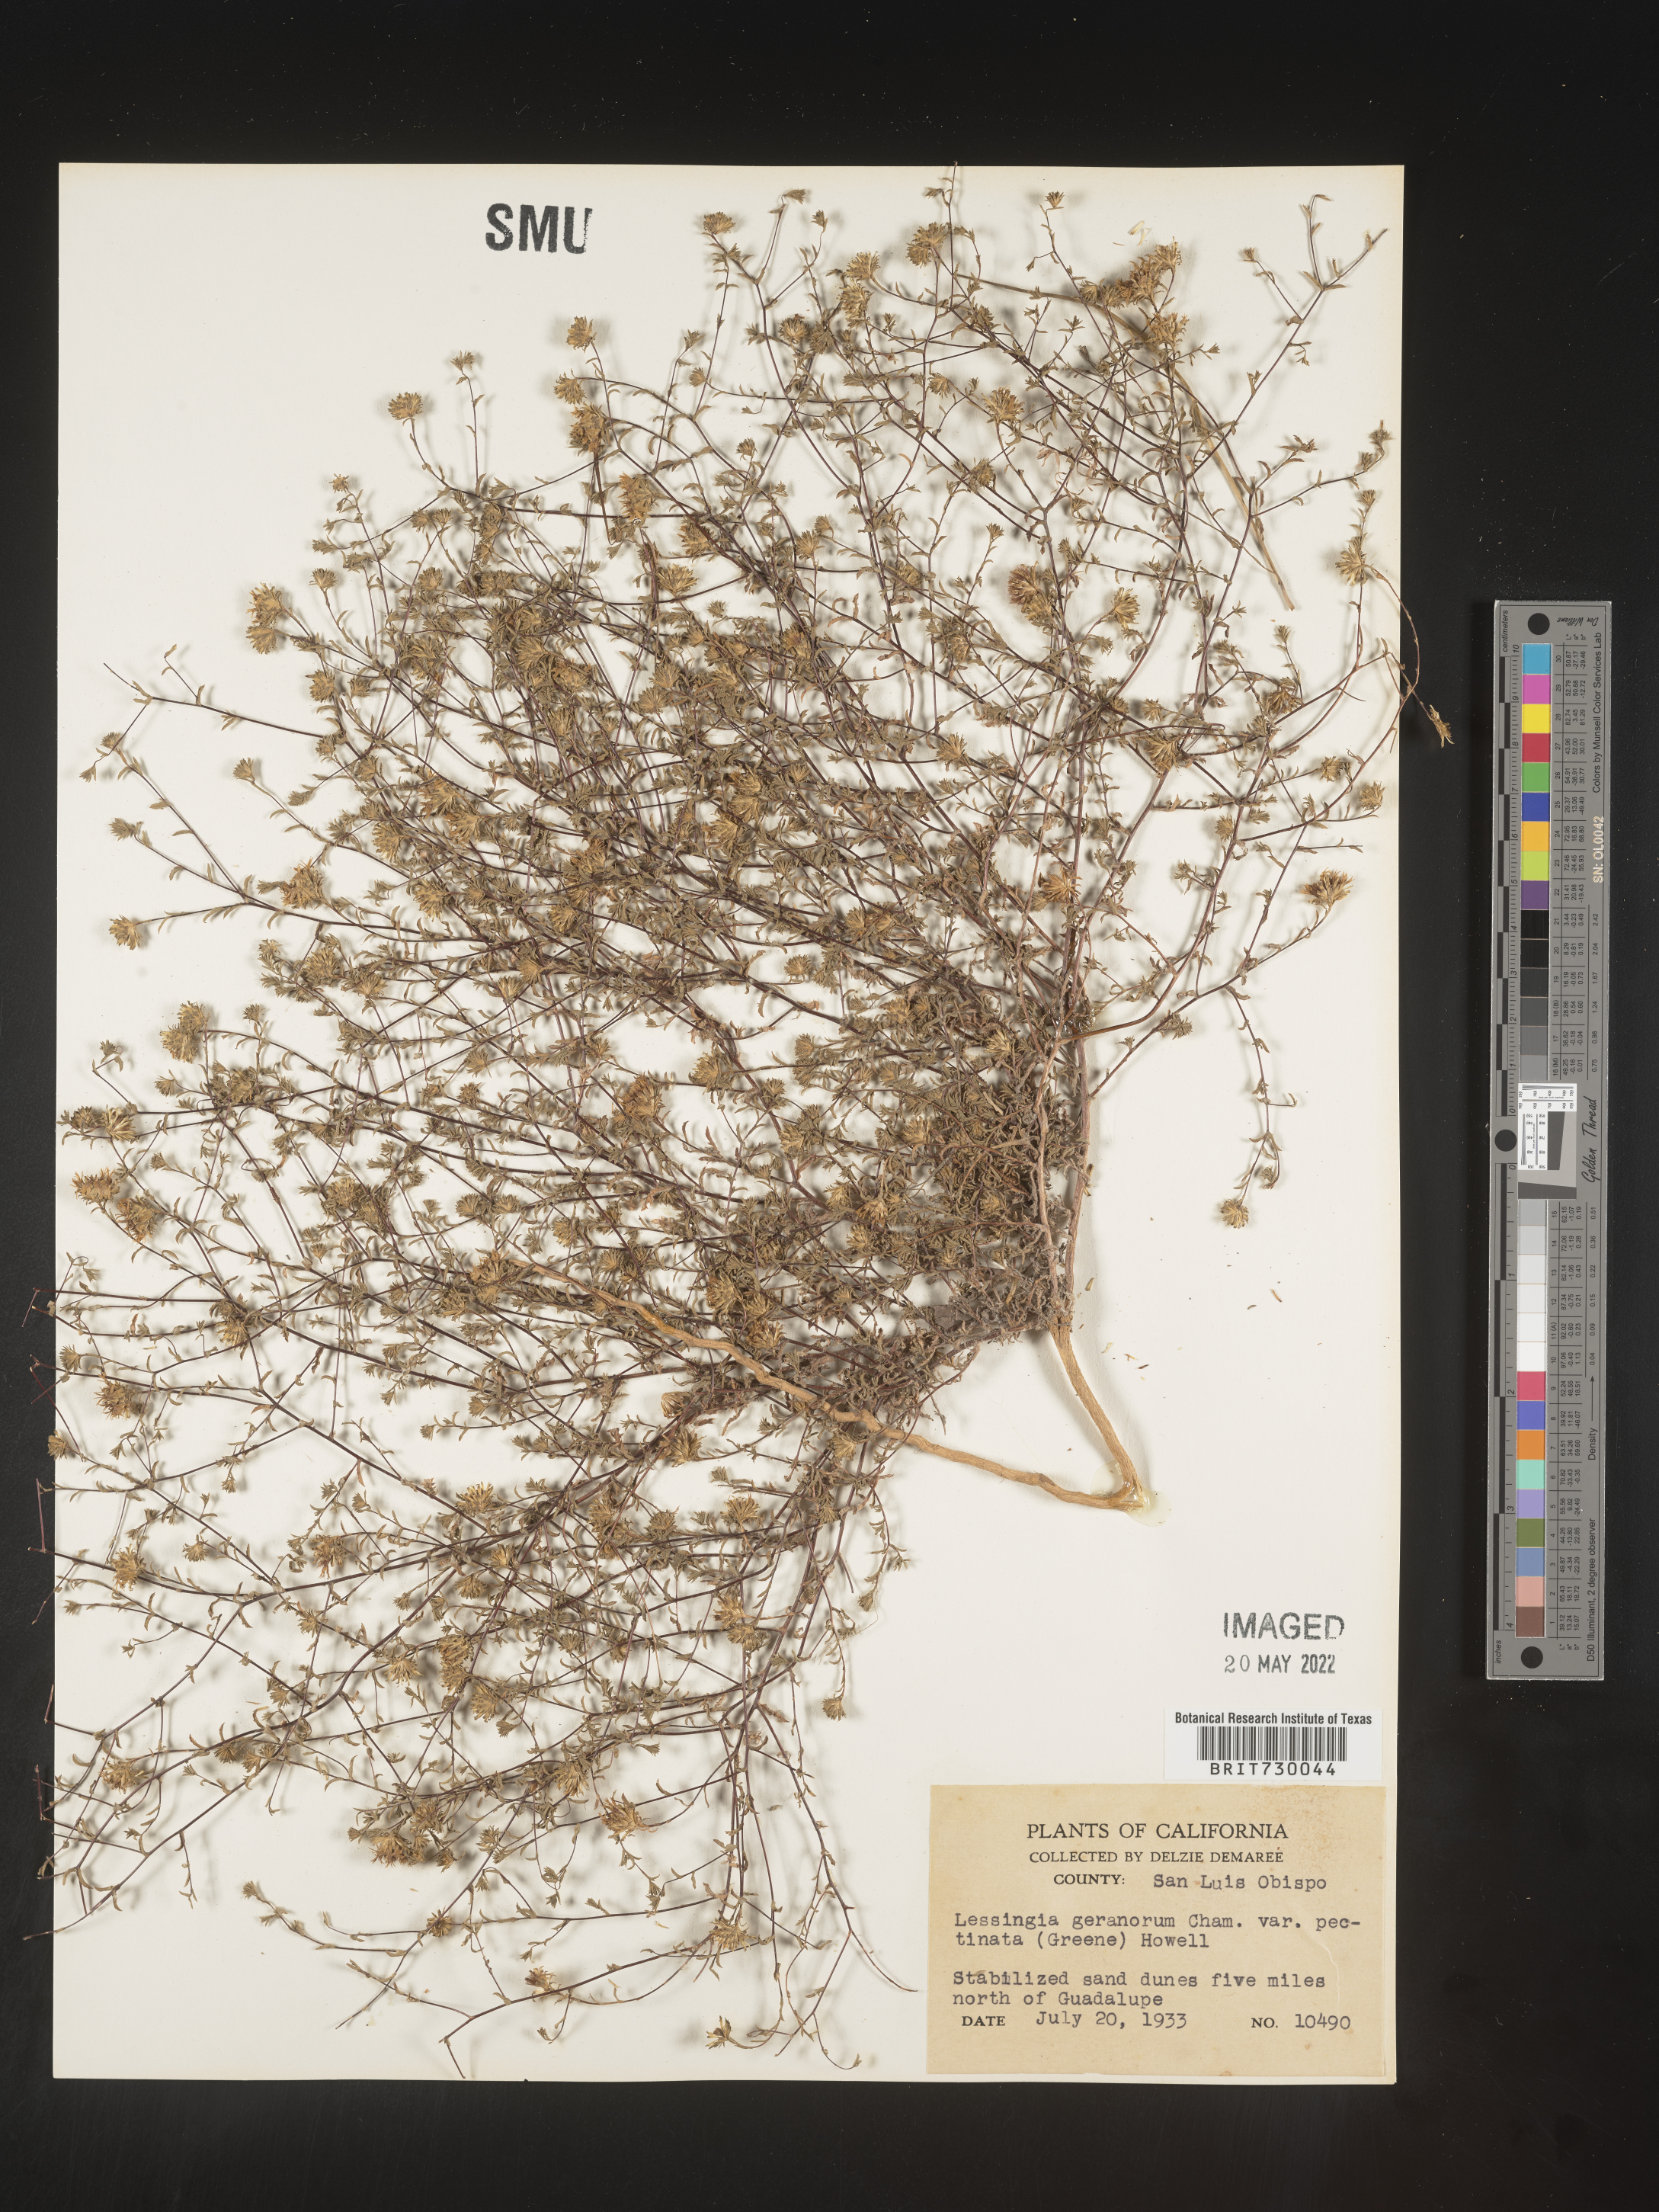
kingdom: Plantae
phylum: Tracheophyta
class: Magnoliopsida
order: Asterales
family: Asteraceae
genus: Lessingia
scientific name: Lessingia
